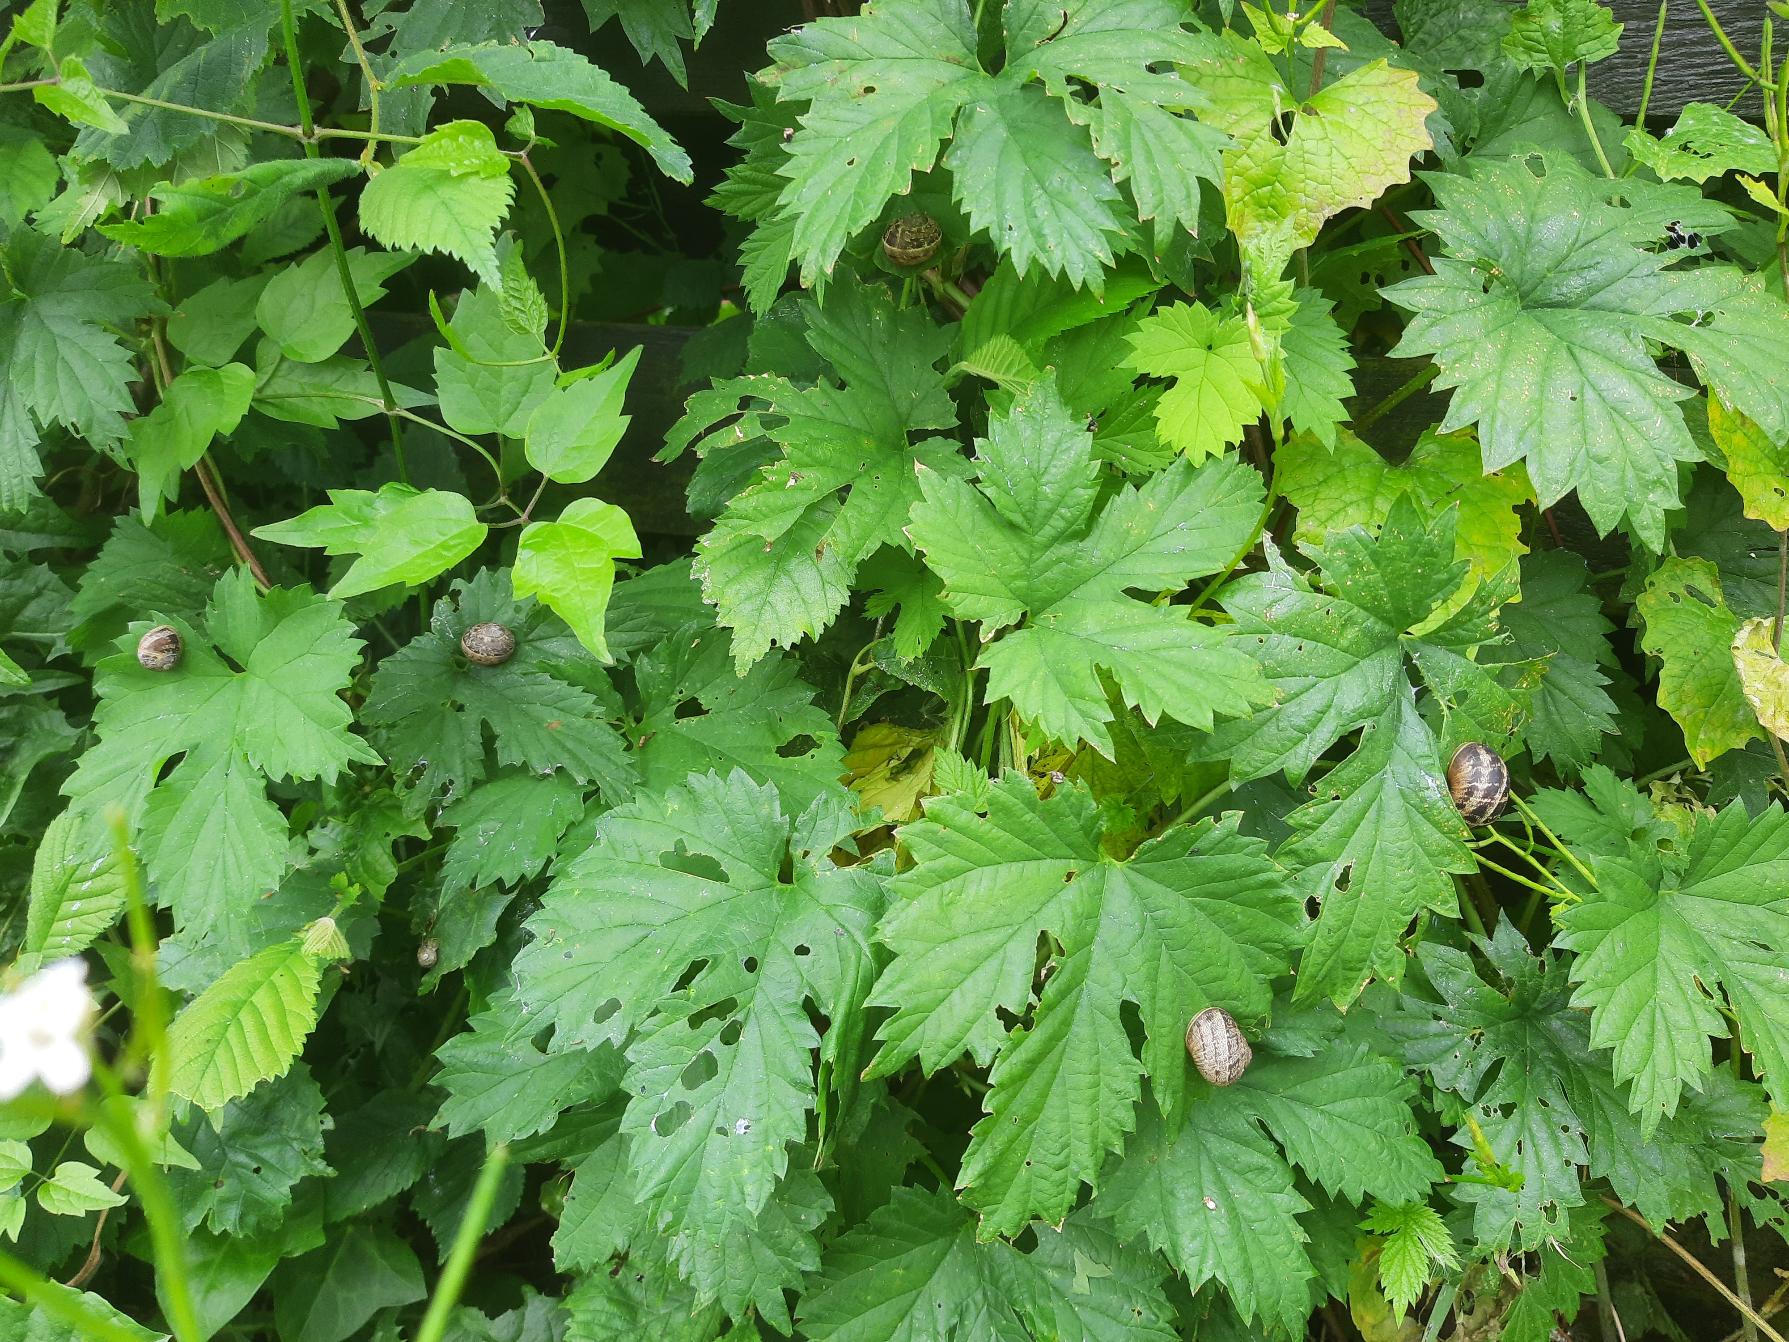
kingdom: Animalia
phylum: Mollusca
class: Gastropoda
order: Stylommatophora
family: Helicidae
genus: Cornu
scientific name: Cornu aspersum
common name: Plettet voldsnegl
